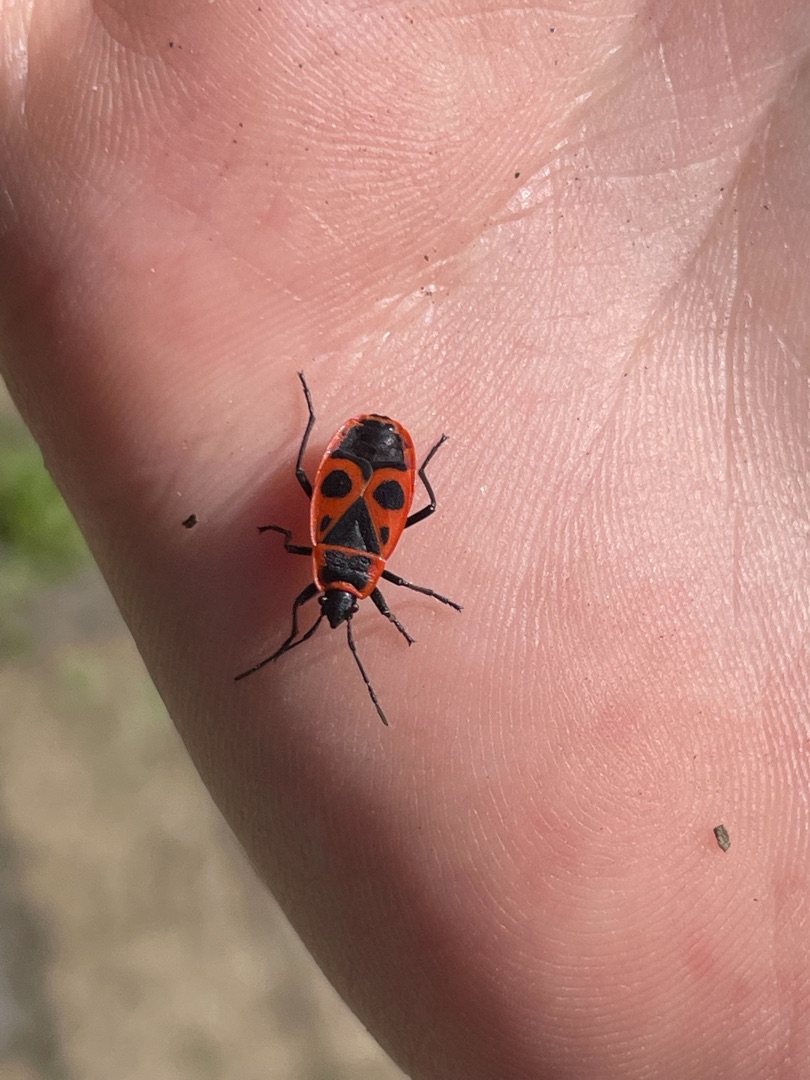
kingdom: Animalia
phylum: Arthropoda
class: Insecta
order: Hemiptera
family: Pyrrhocoridae
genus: Pyrrhocoris
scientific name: Pyrrhocoris apterus
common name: Ildtæge
